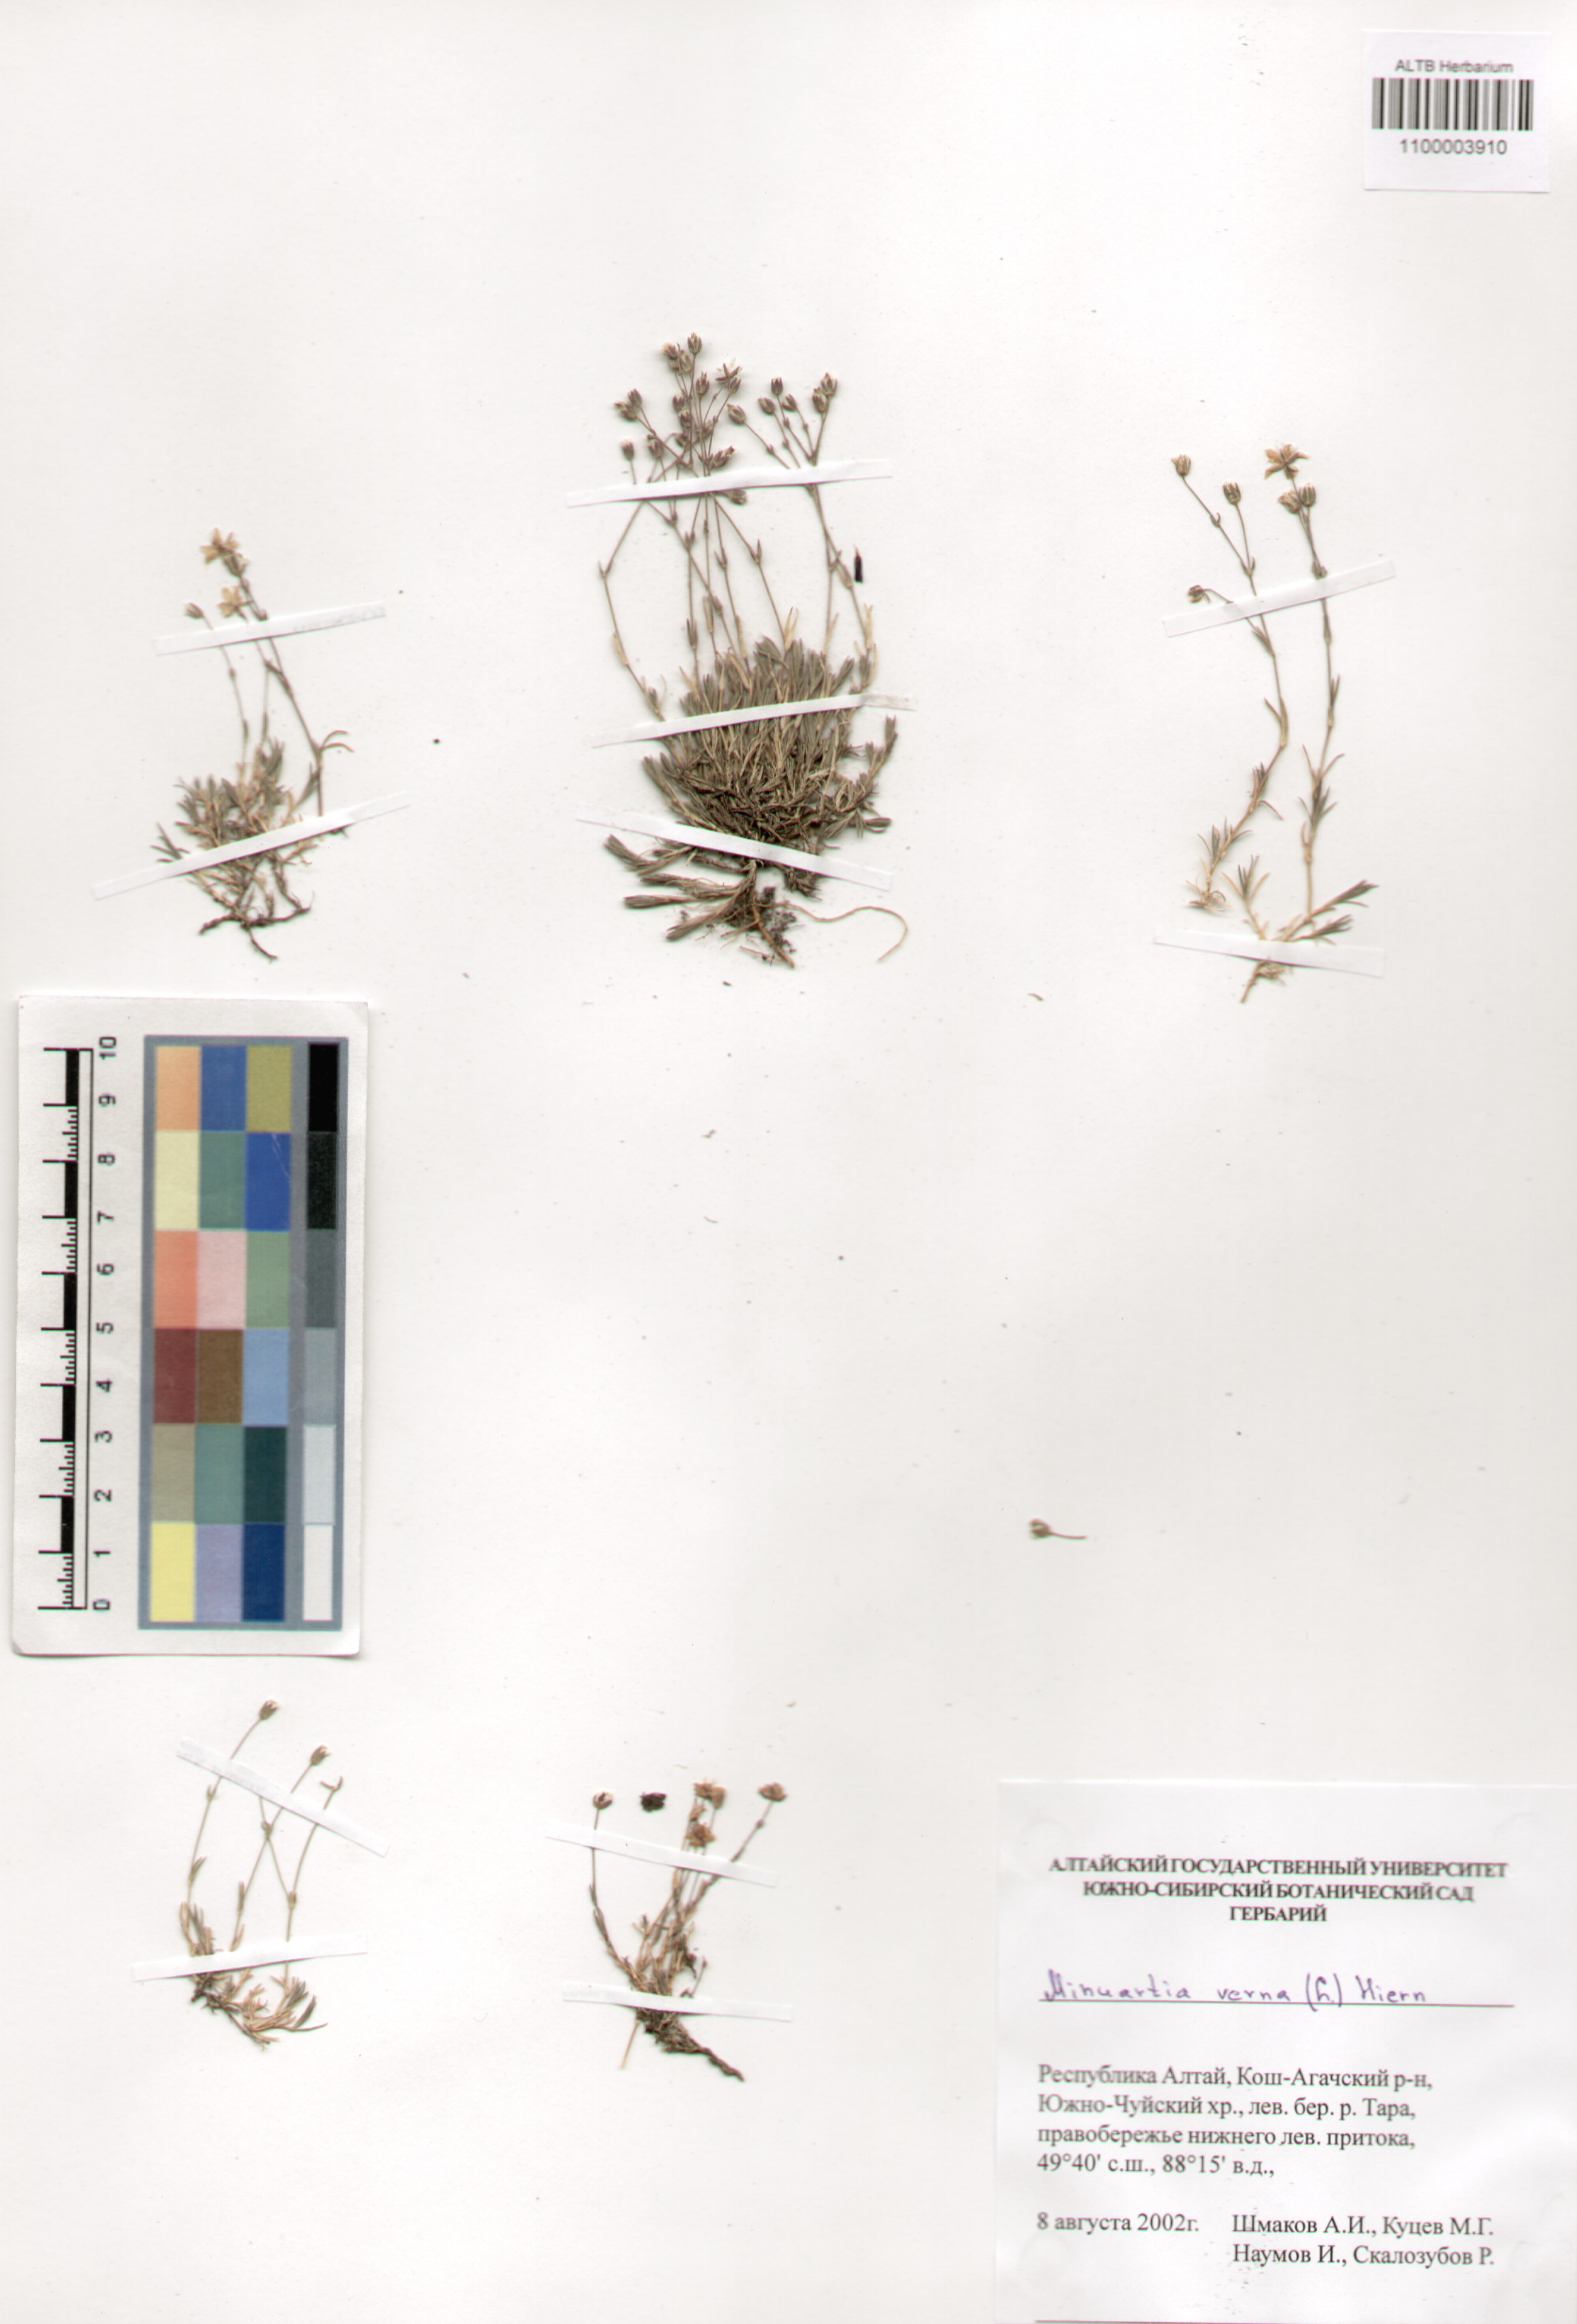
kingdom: Plantae
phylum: Tracheophyta
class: Magnoliopsida
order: Caryophyllales
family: Caryophyllaceae
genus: Sabulina
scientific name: Sabulina verna
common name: Spring sandwort
